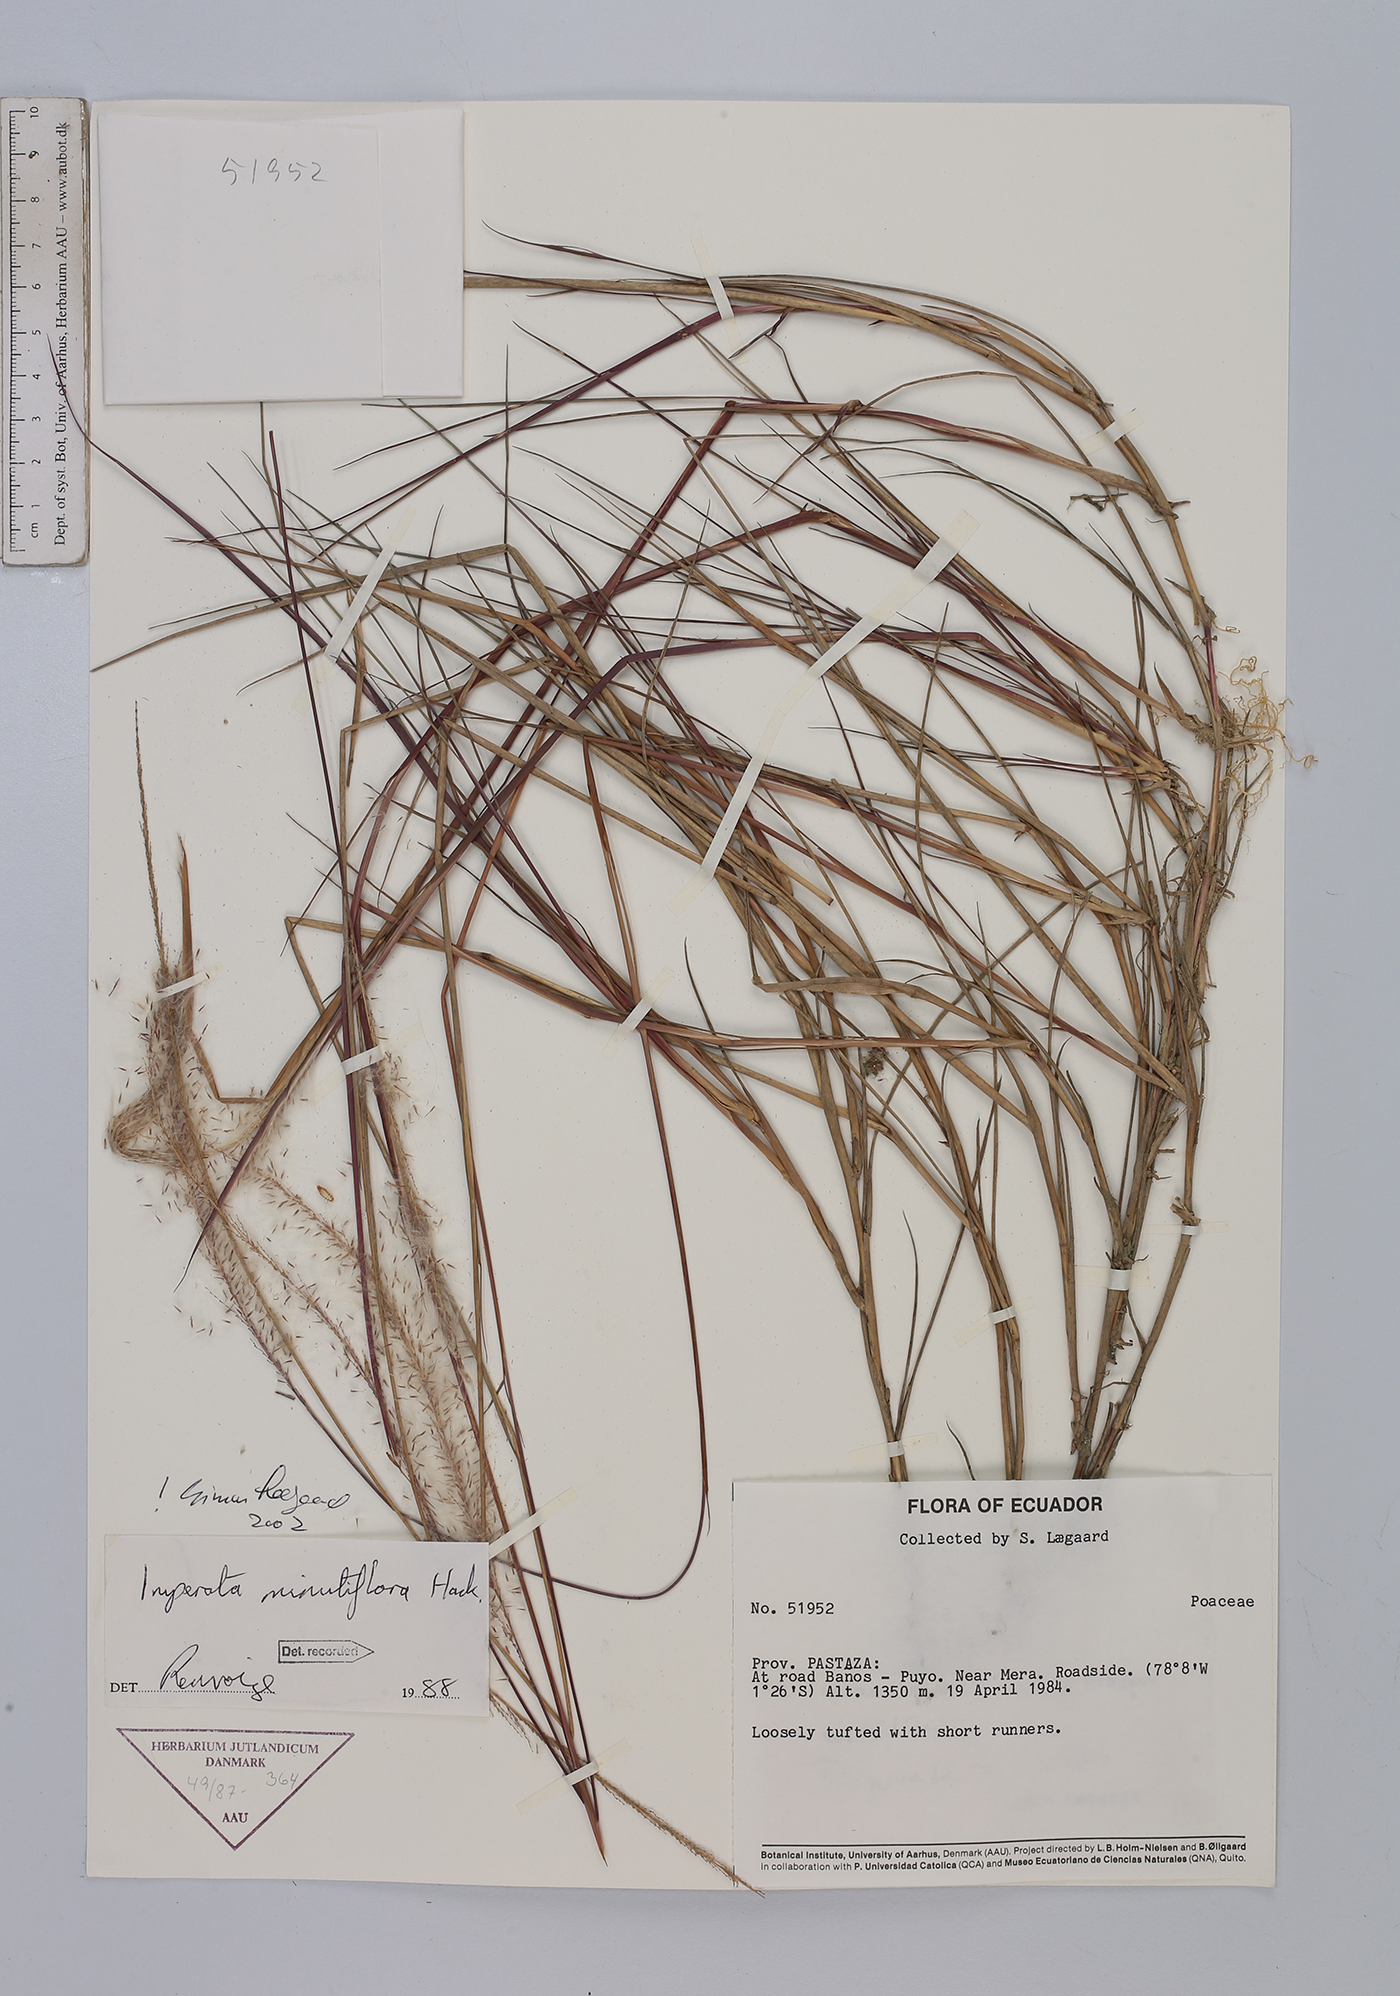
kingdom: Plantae
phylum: Tracheophyta
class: Liliopsida
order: Poales
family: Poaceae
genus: Imperata
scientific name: Imperata minutiflora
